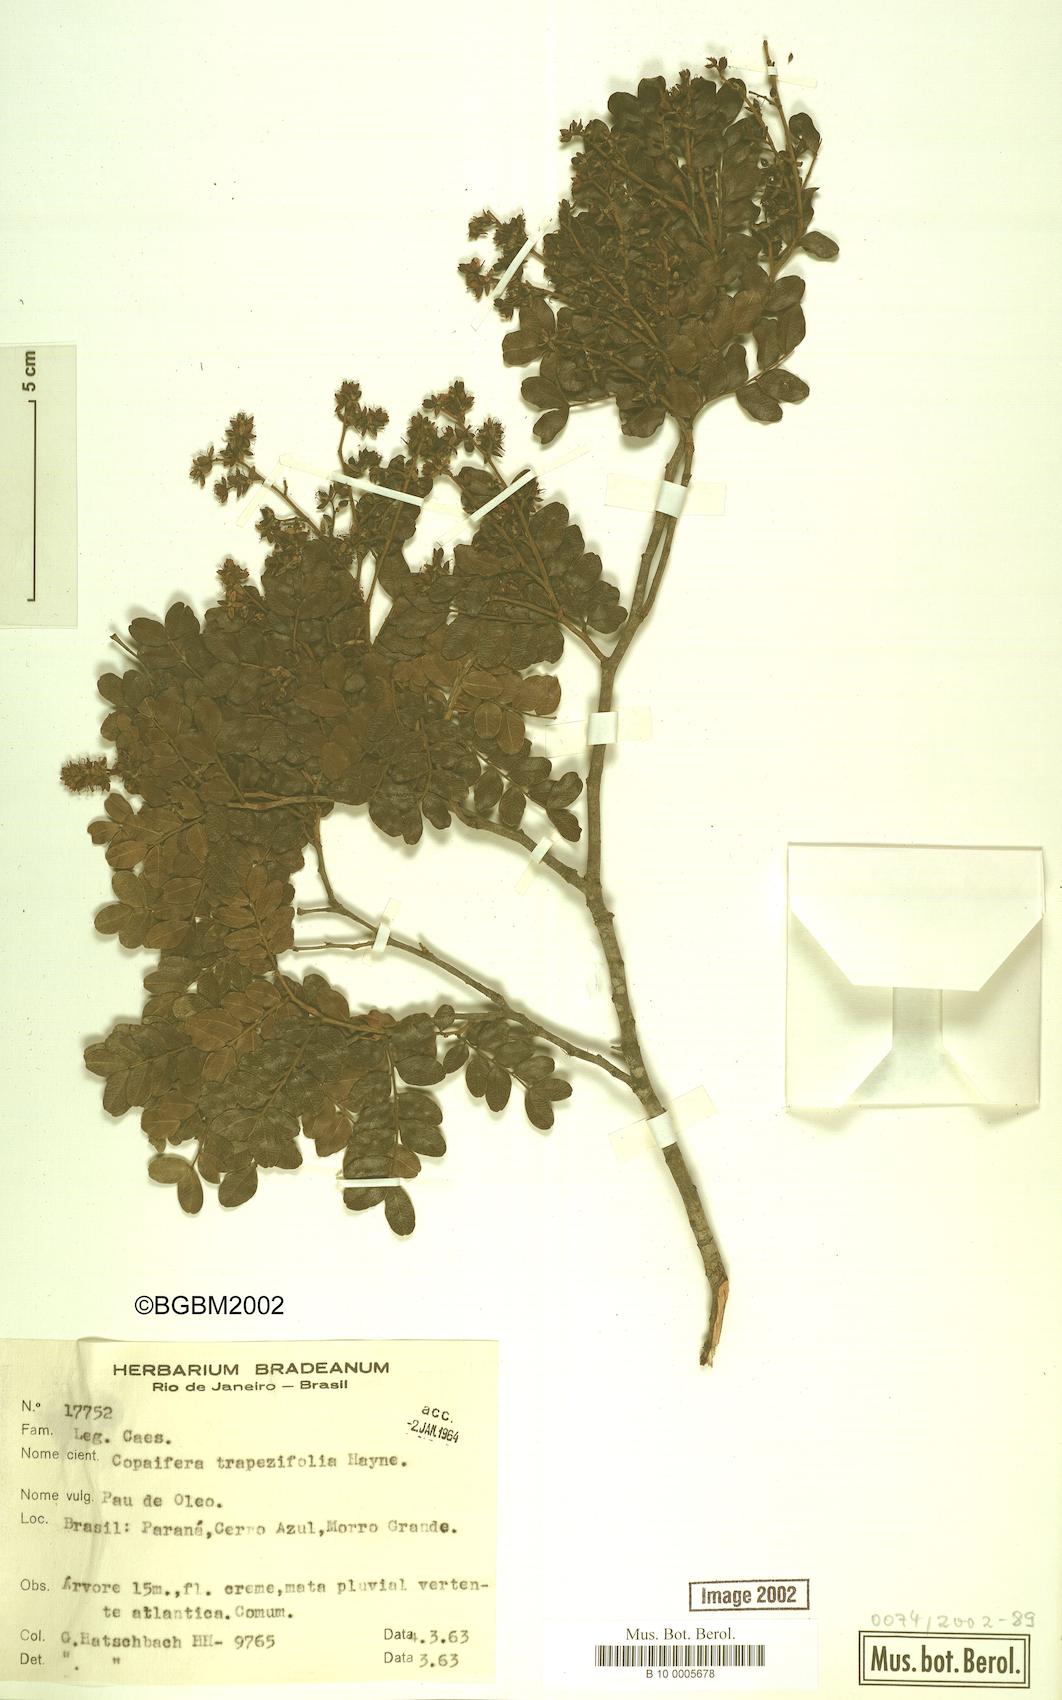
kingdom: Plantae
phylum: Tracheophyta
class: Magnoliopsida
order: Fabales
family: Fabaceae
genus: Copaifera
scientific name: Copaifera trapezifolia
